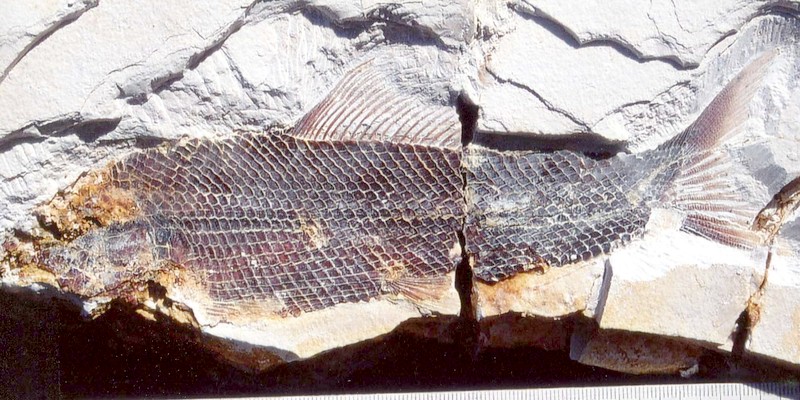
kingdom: Animalia
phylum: Chordata
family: Ophiopsiellidae
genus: Ophiopsiella
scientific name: Ophiopsiella attenuata
